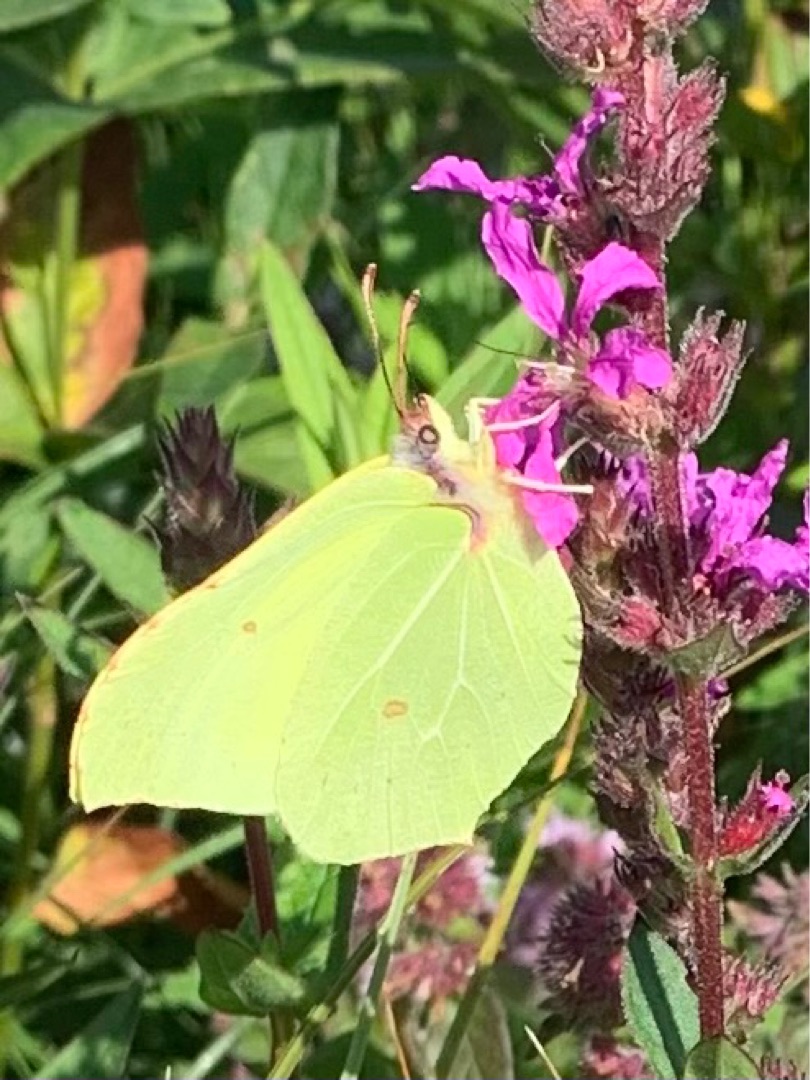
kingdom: Animalia
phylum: Arthropoda
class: Insecta
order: Lepidoptera
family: Pieridae
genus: Gonepteryx
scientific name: Gonepteryx rhamni
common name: Citronsommerfugl
